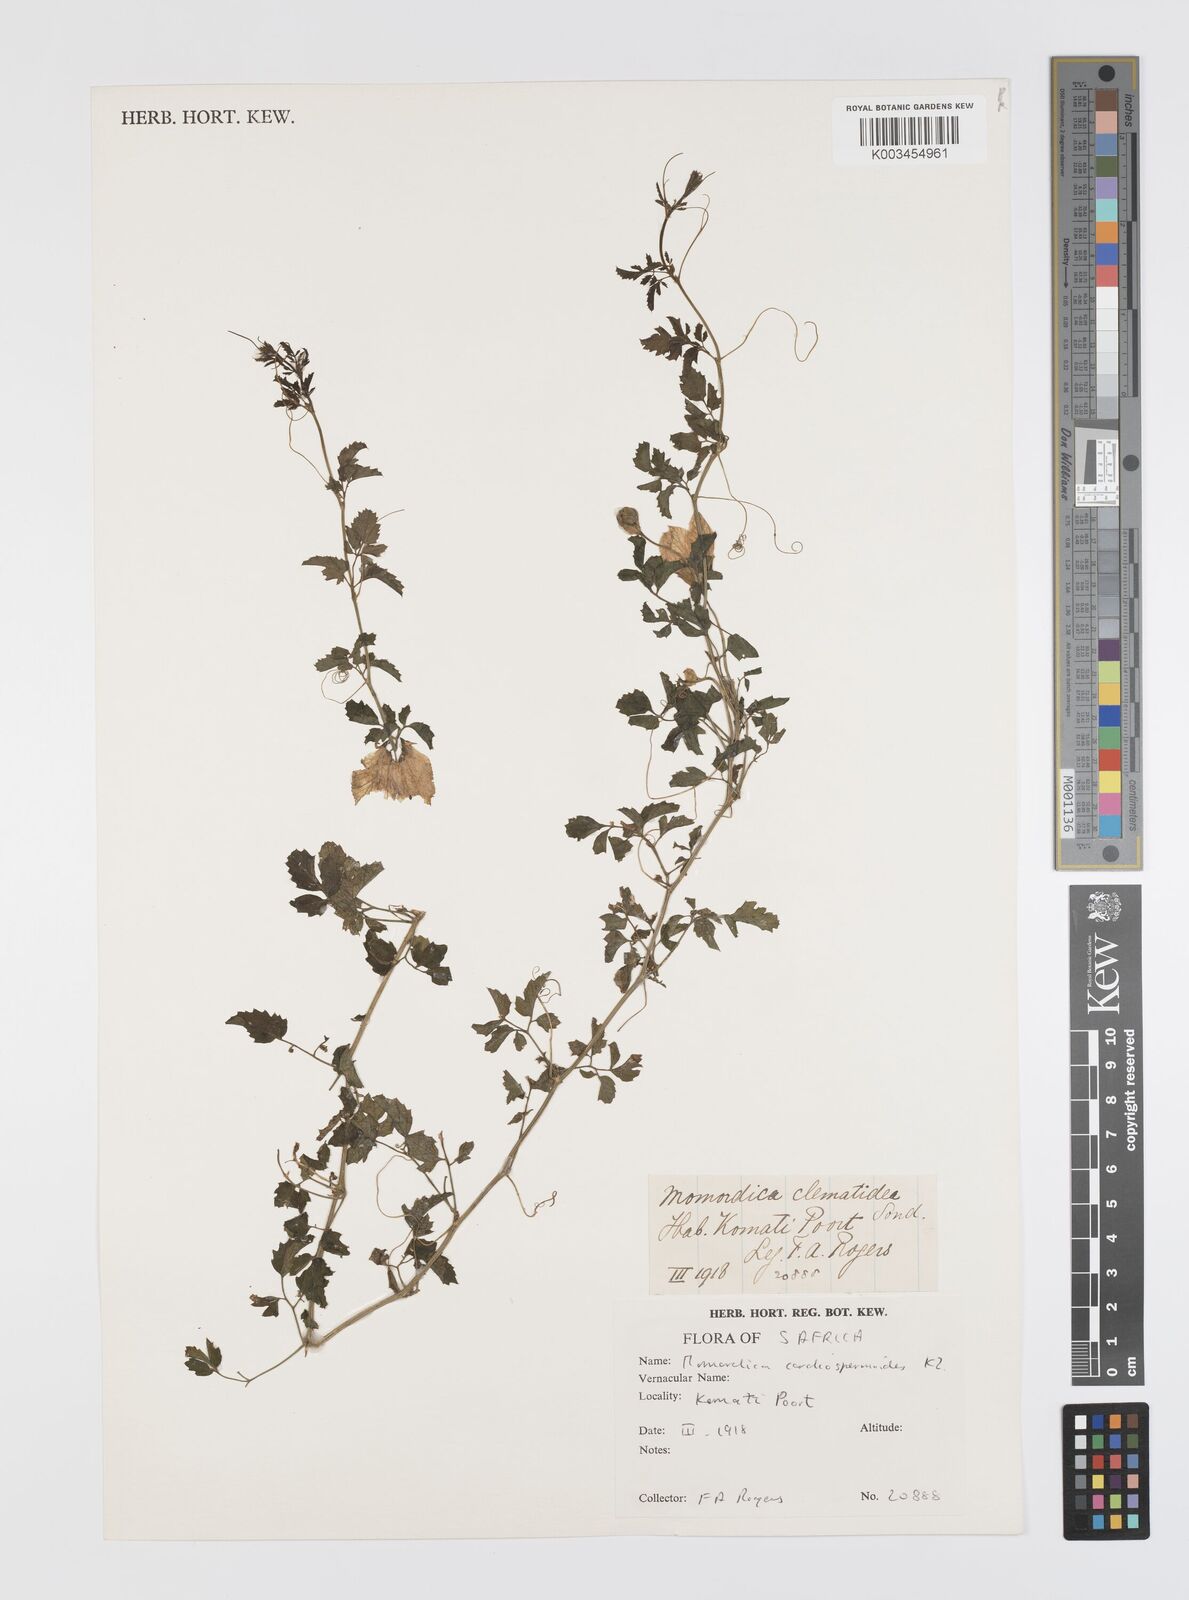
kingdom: Plantae
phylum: Tracheophyta
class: Magnoliopsida
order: Cucurbitales
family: Cucurbitaceae
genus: Momordica
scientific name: Momordica cardiospermoides
